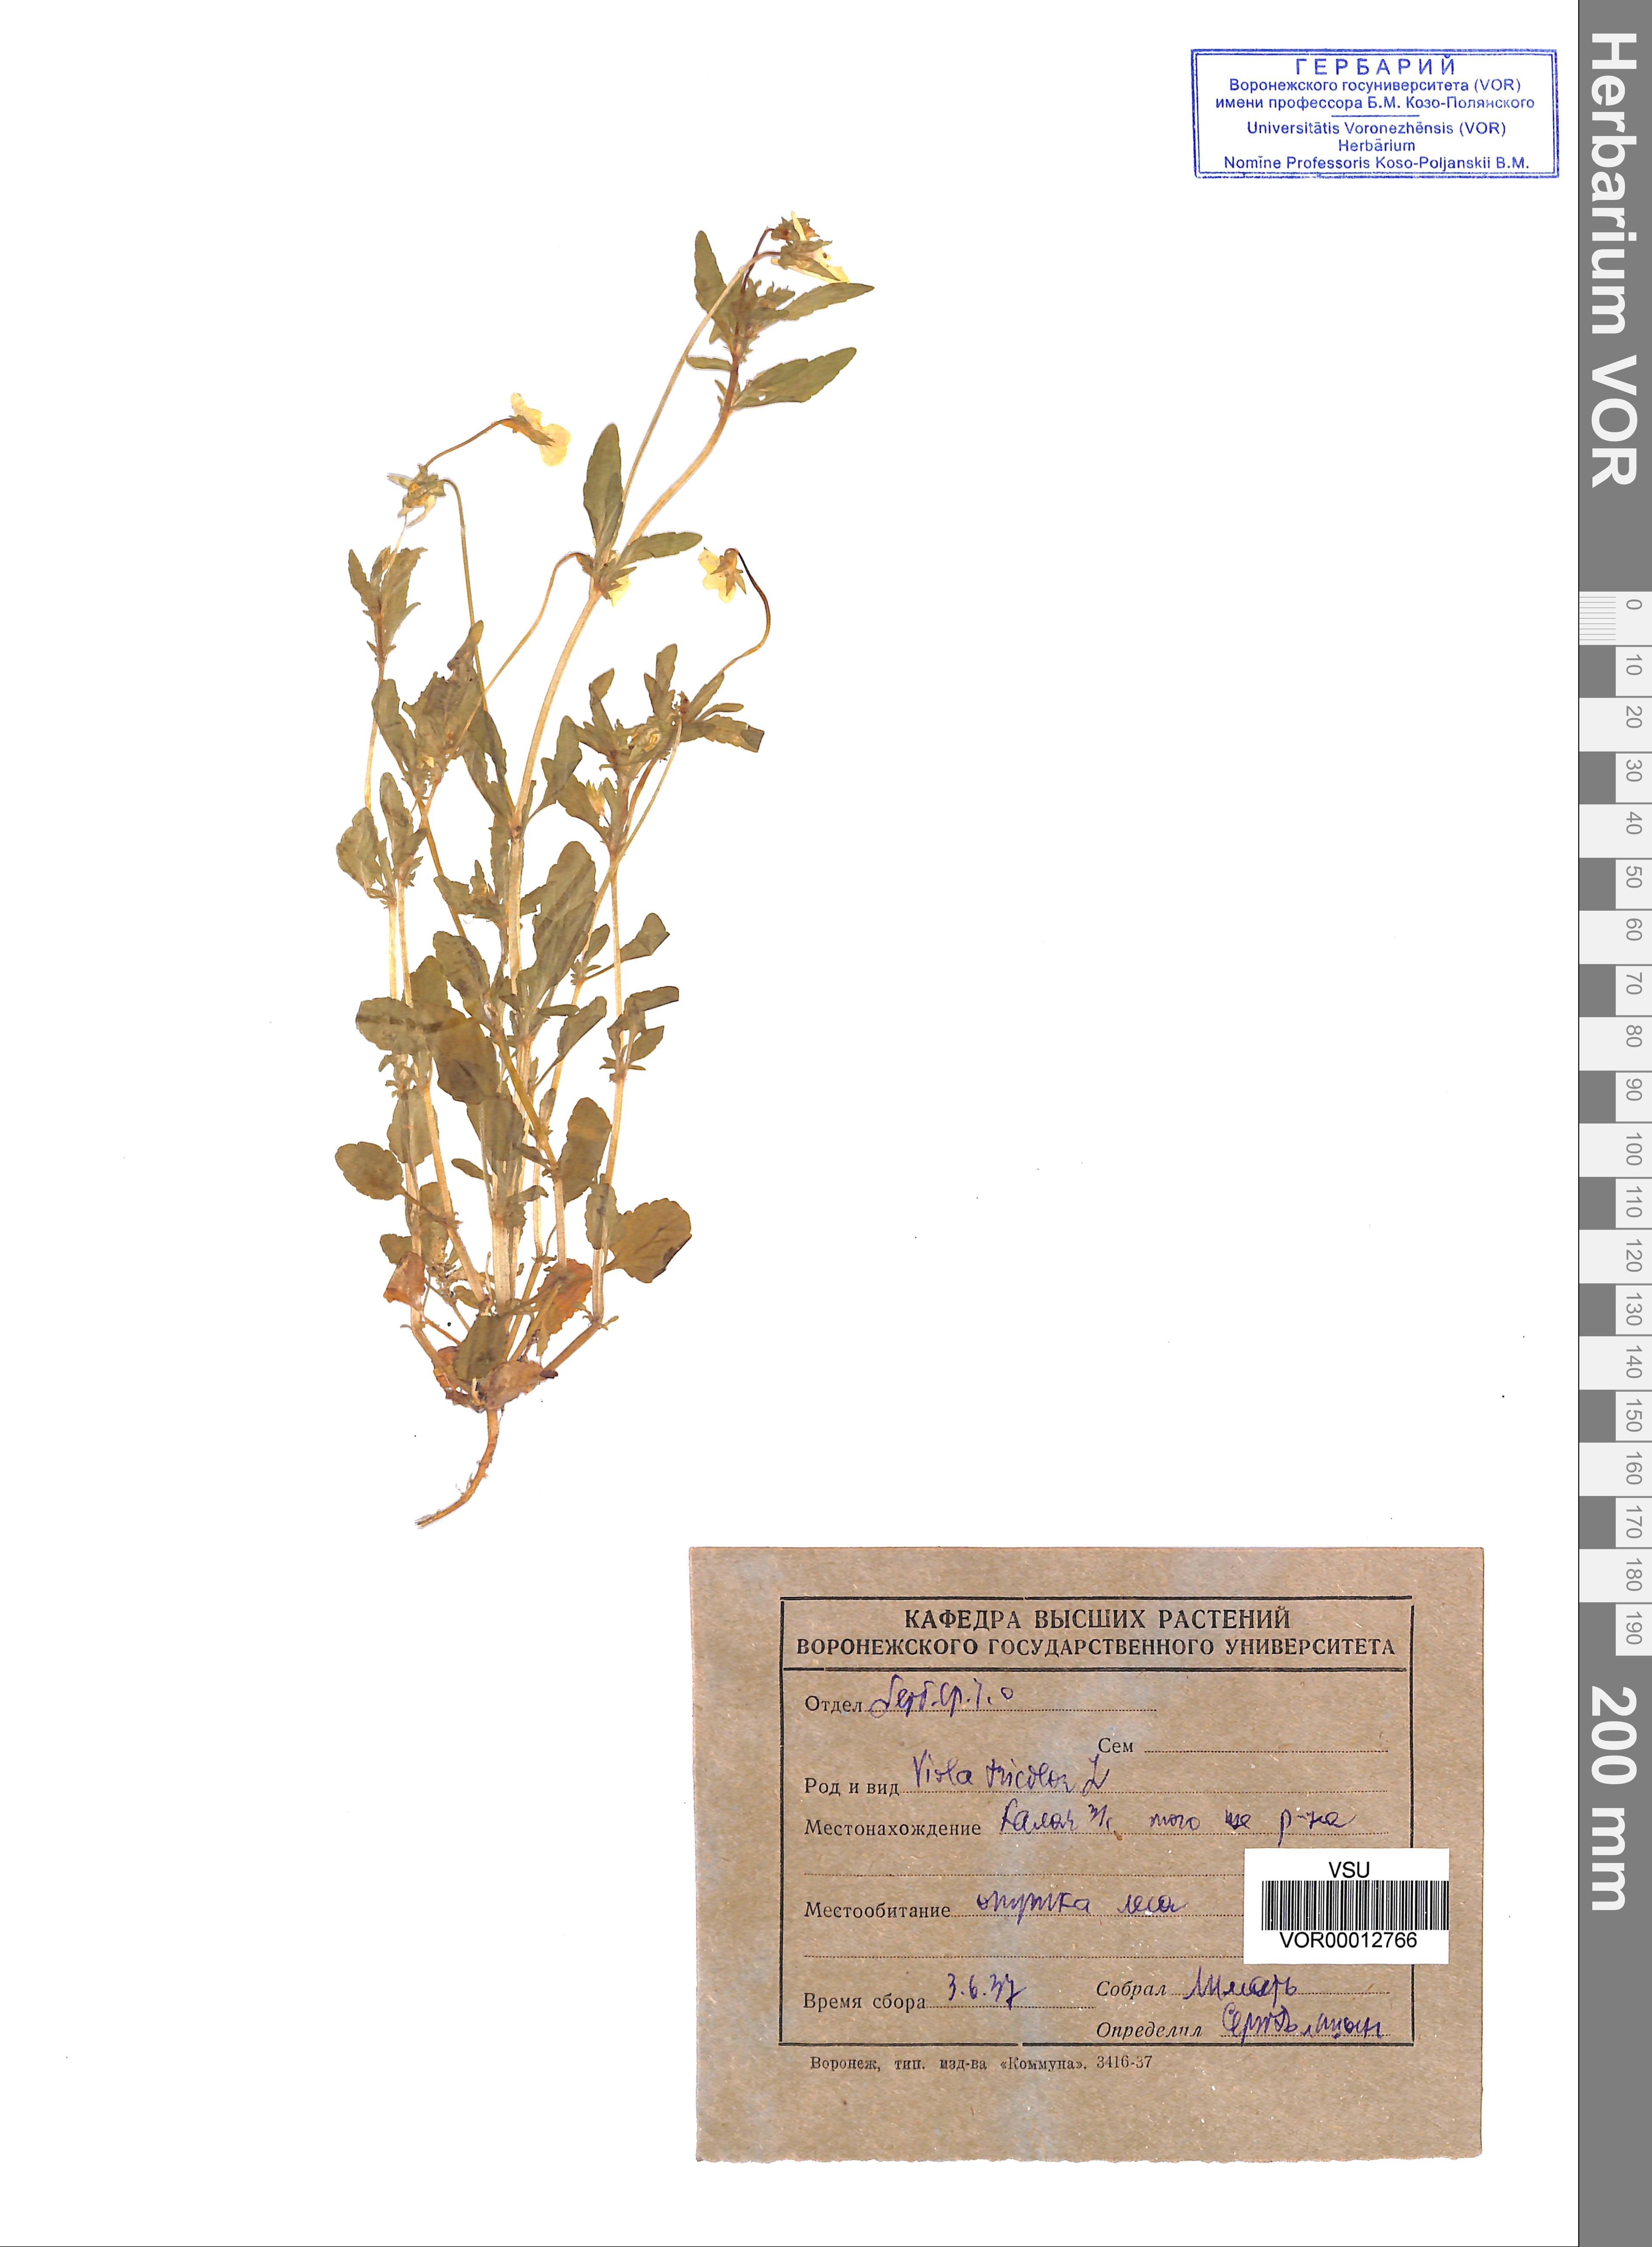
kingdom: Plantae
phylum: Tracheophyta
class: Magnoliopsida
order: Malpighiales
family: Violaceae
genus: Viola
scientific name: Viola tricolor
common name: Pansy
